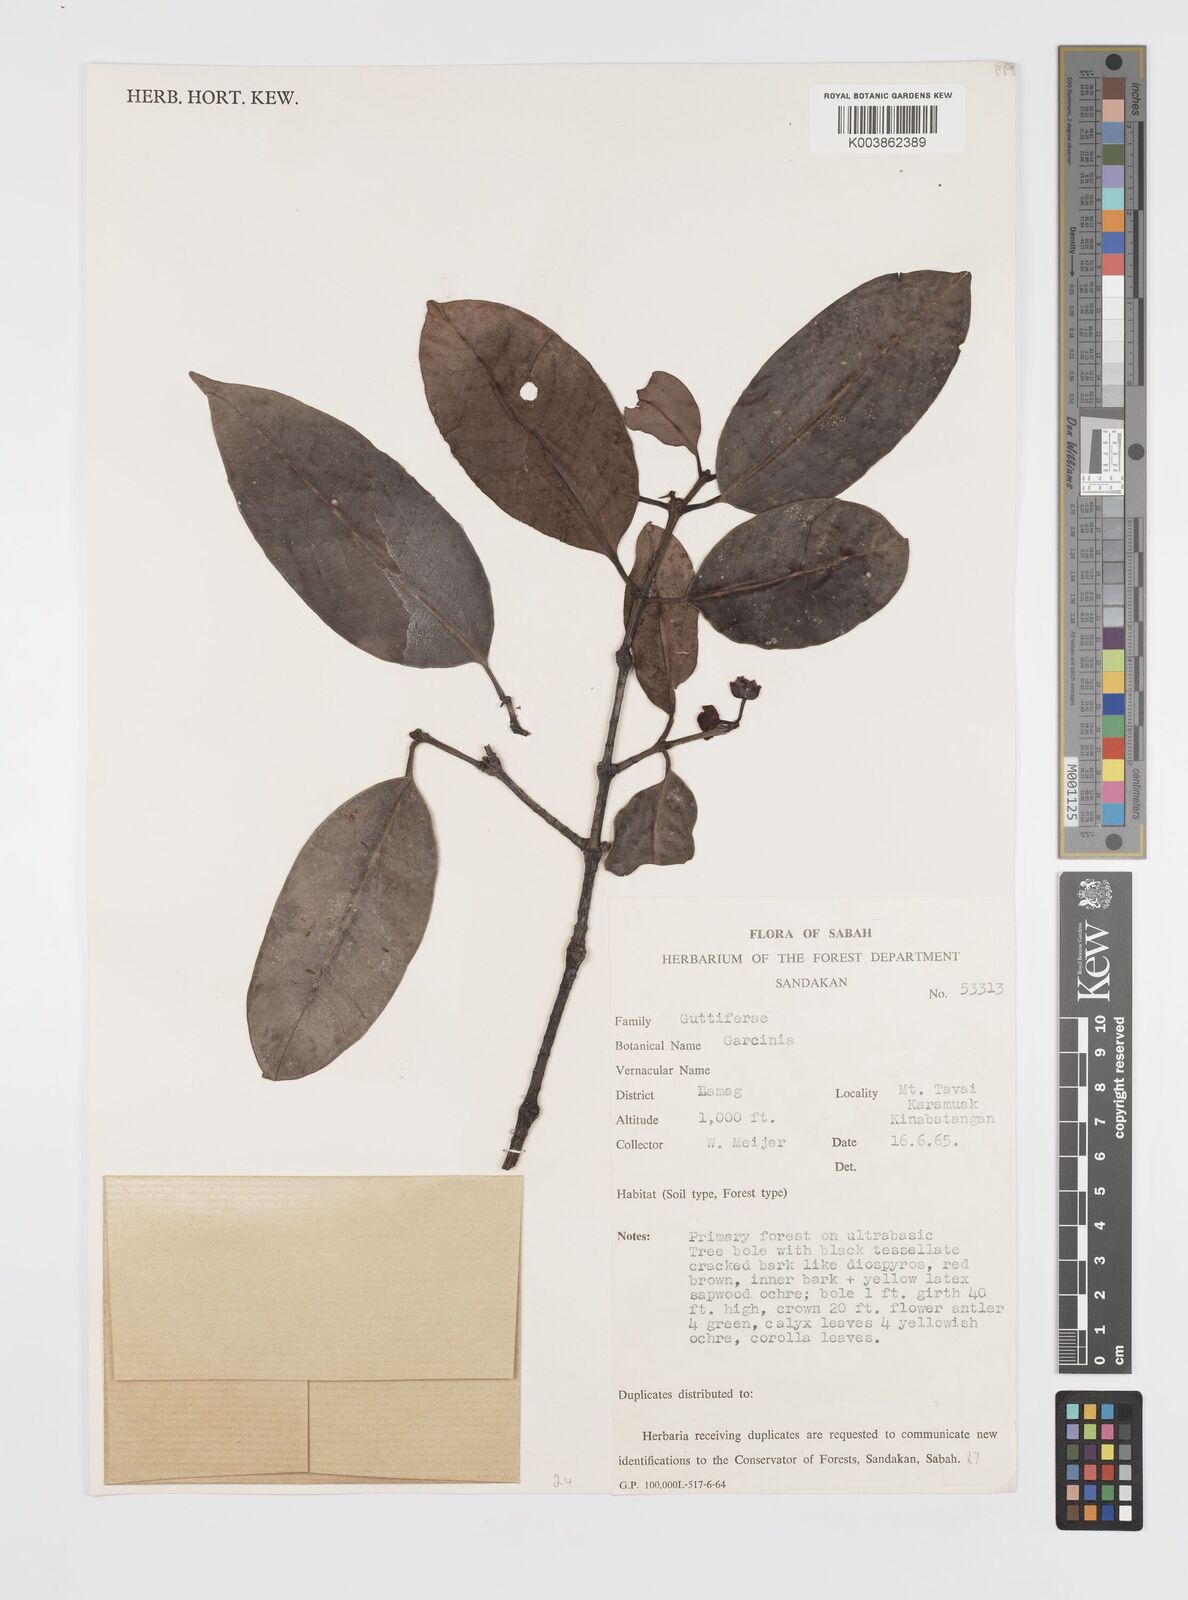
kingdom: Plantae
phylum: Tracheophyta
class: Magnoliopsida
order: Malpighiales
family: Clusiaceae
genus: Garcinia
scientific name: Garcinia
